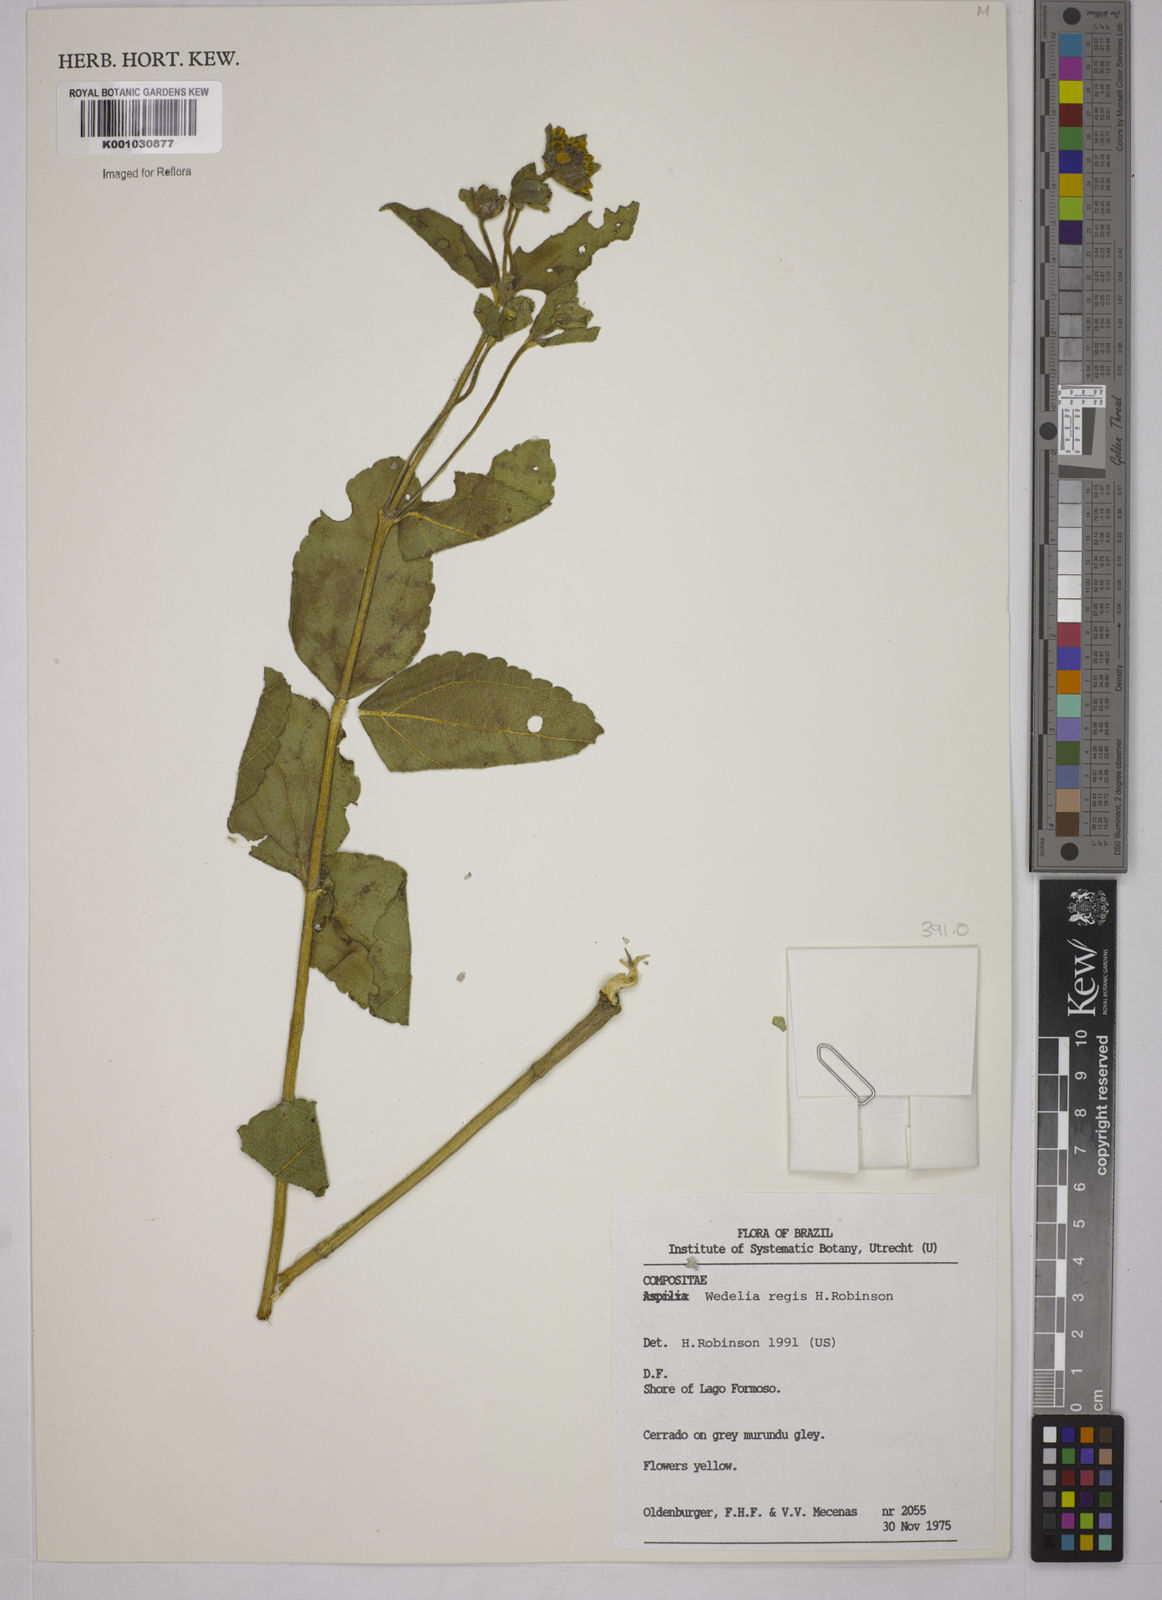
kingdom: Plantae
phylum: Tracheophyta
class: Magnoliopsida
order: Asterales
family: Asteraceae
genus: Wedelia
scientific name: Wedelia regis
